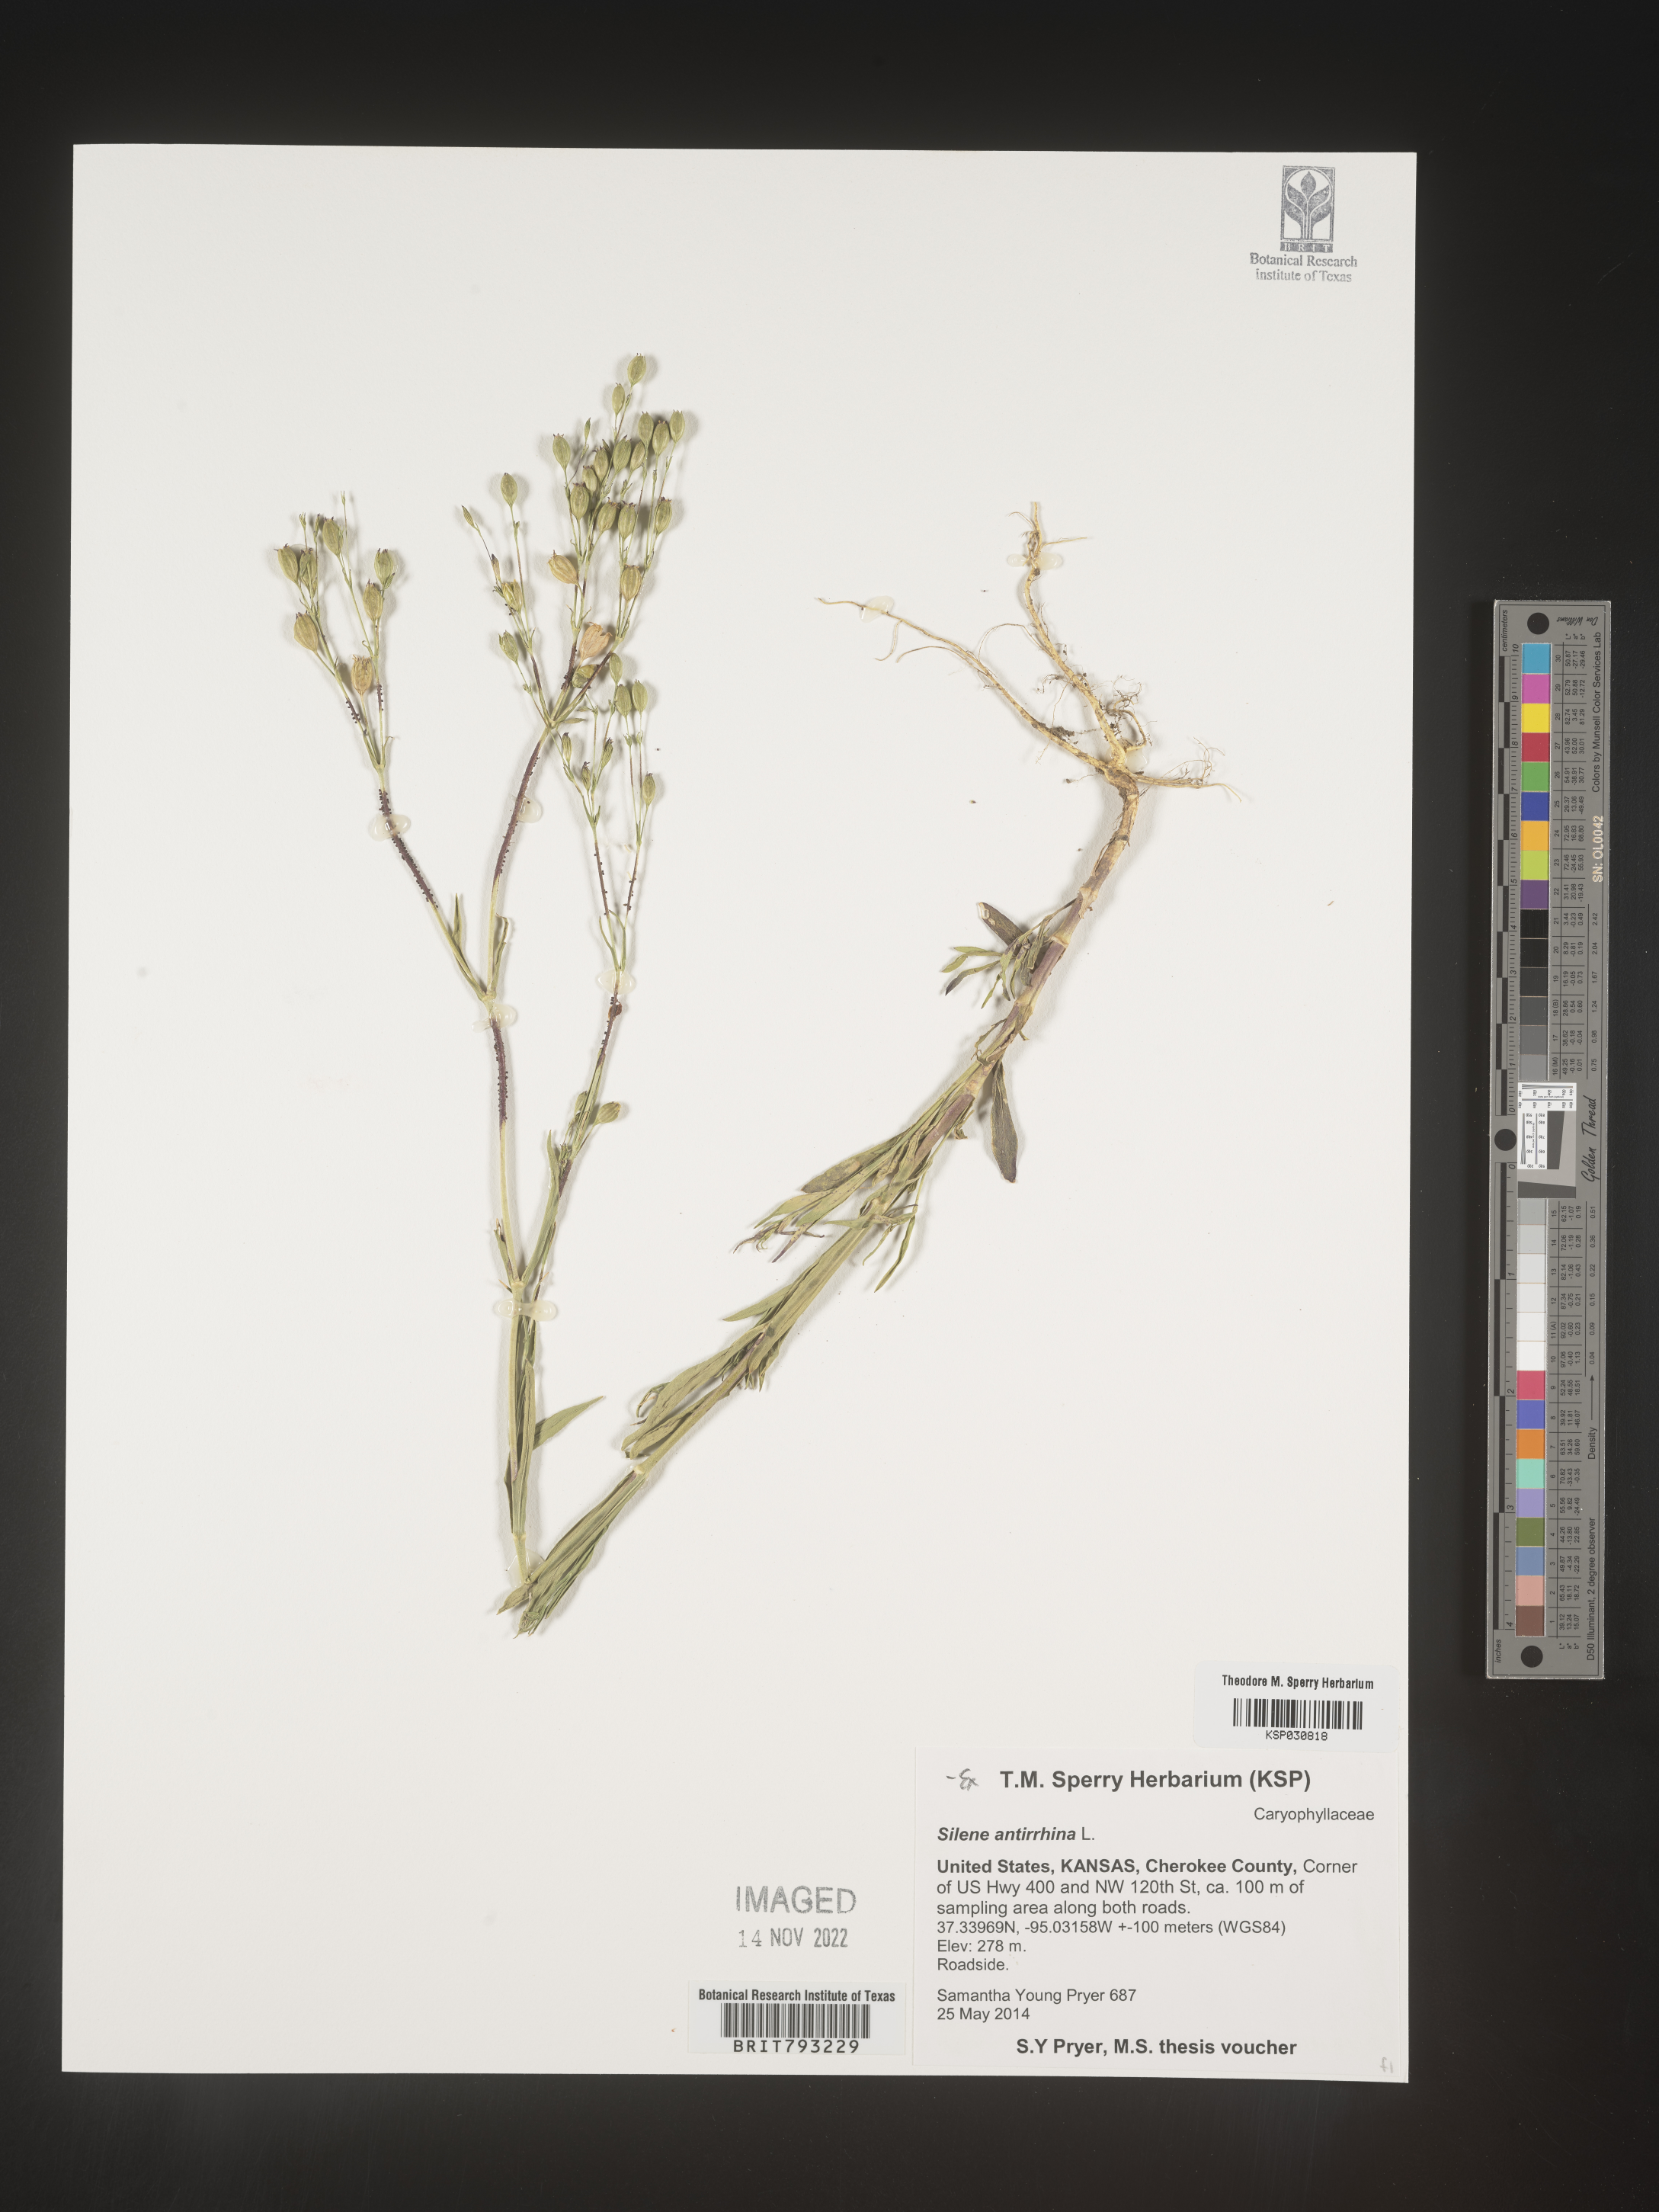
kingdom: Plantae
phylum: Tracheophyta
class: Magnoliopsida
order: Caryophyllales
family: Caryophyllaceae
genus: Silene
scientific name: Silene antirrhina
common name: Sleepy catchfly
